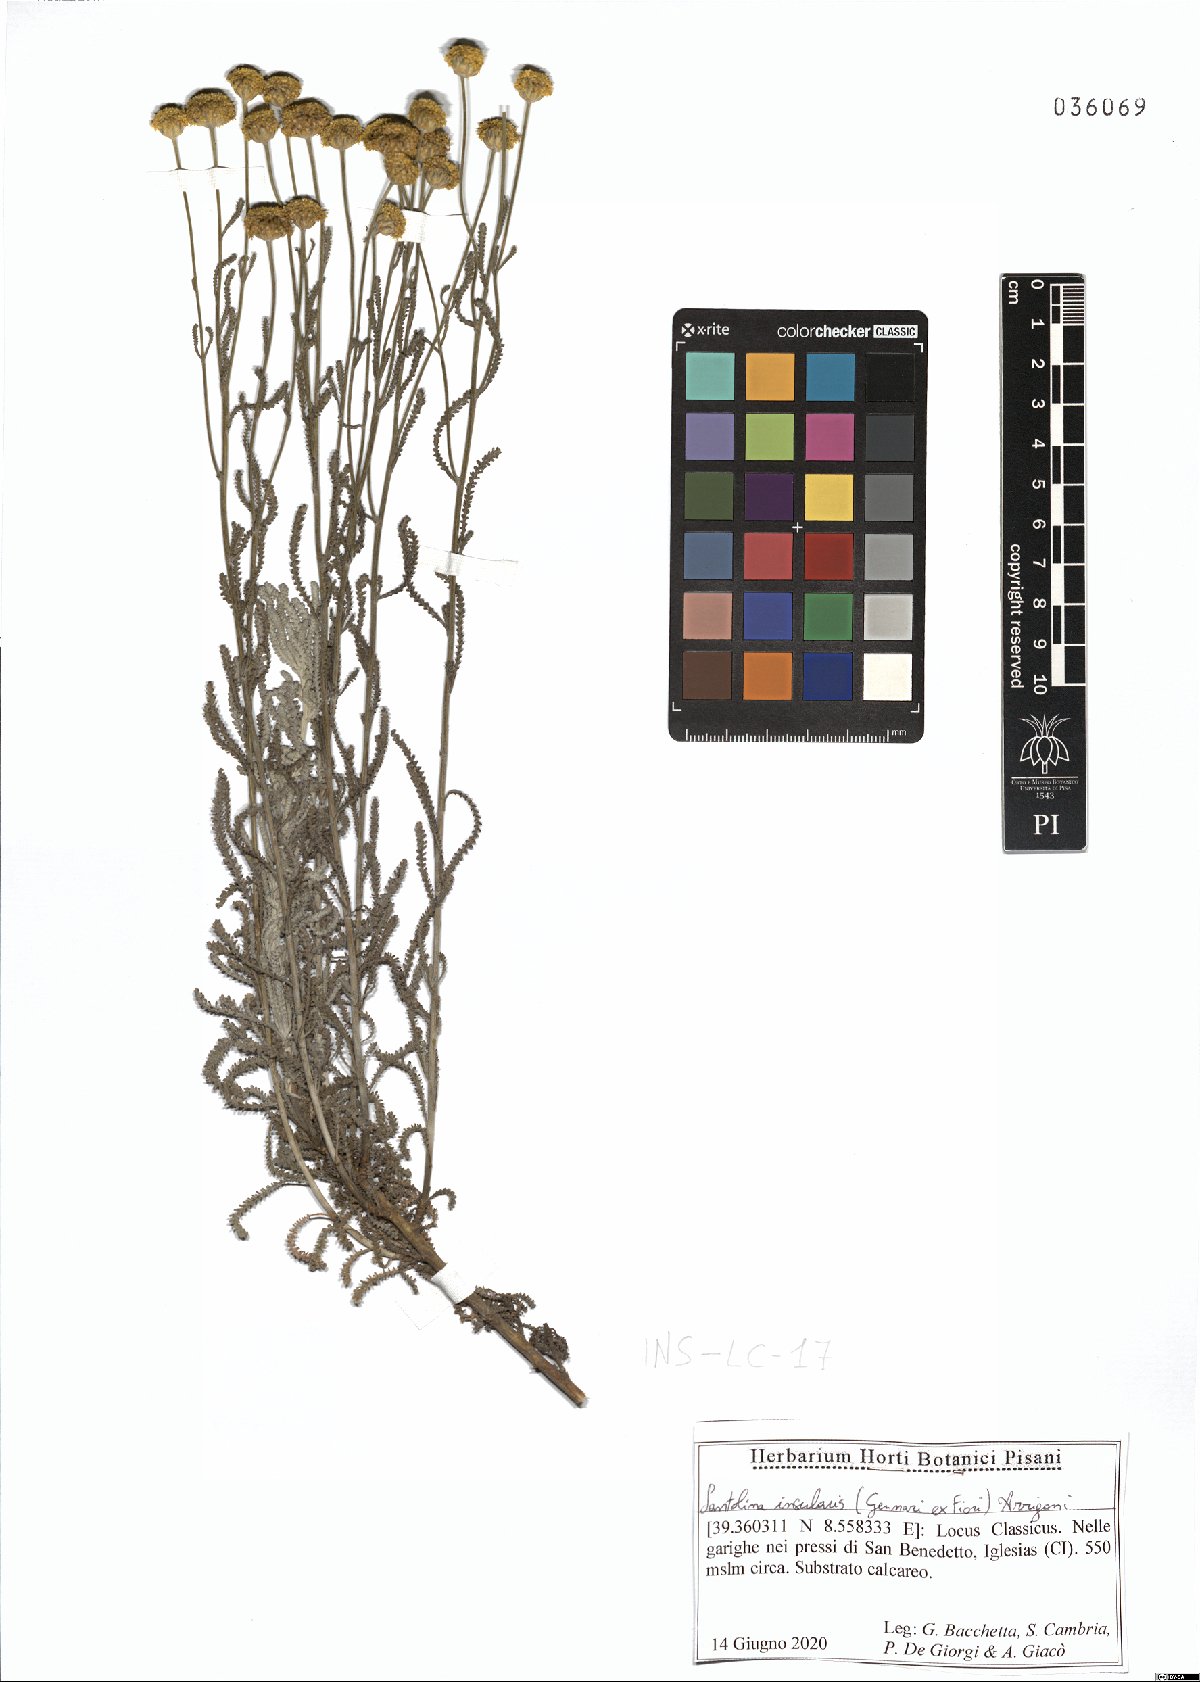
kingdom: Plantae
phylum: Tracheophyta
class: Magnoliopsida
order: Asterales
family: Asteraceae
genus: Santolina
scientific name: Santolina insularis
